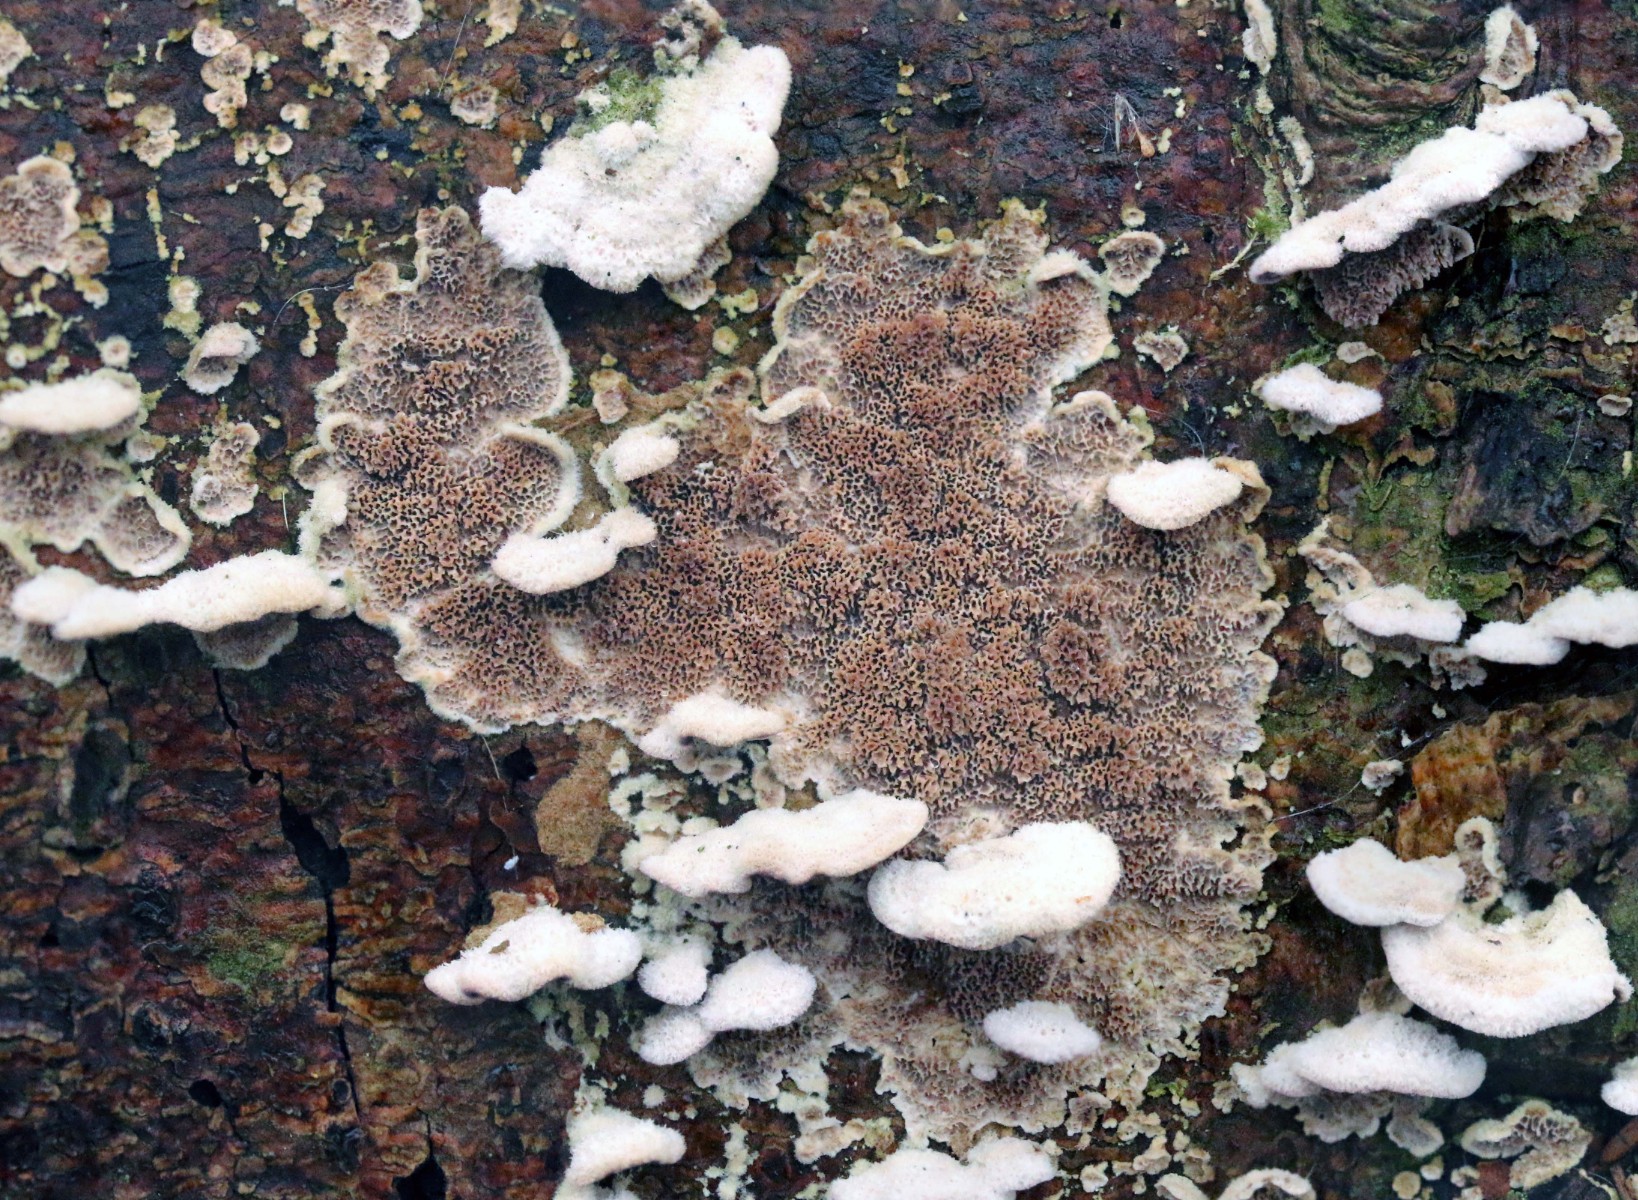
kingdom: Fungi
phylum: Basidiomycota
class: Agaricomycetes
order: Hymenochaetales
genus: Trichaptum
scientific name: Trichaptum abietinum
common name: almindelig violporesvamp
